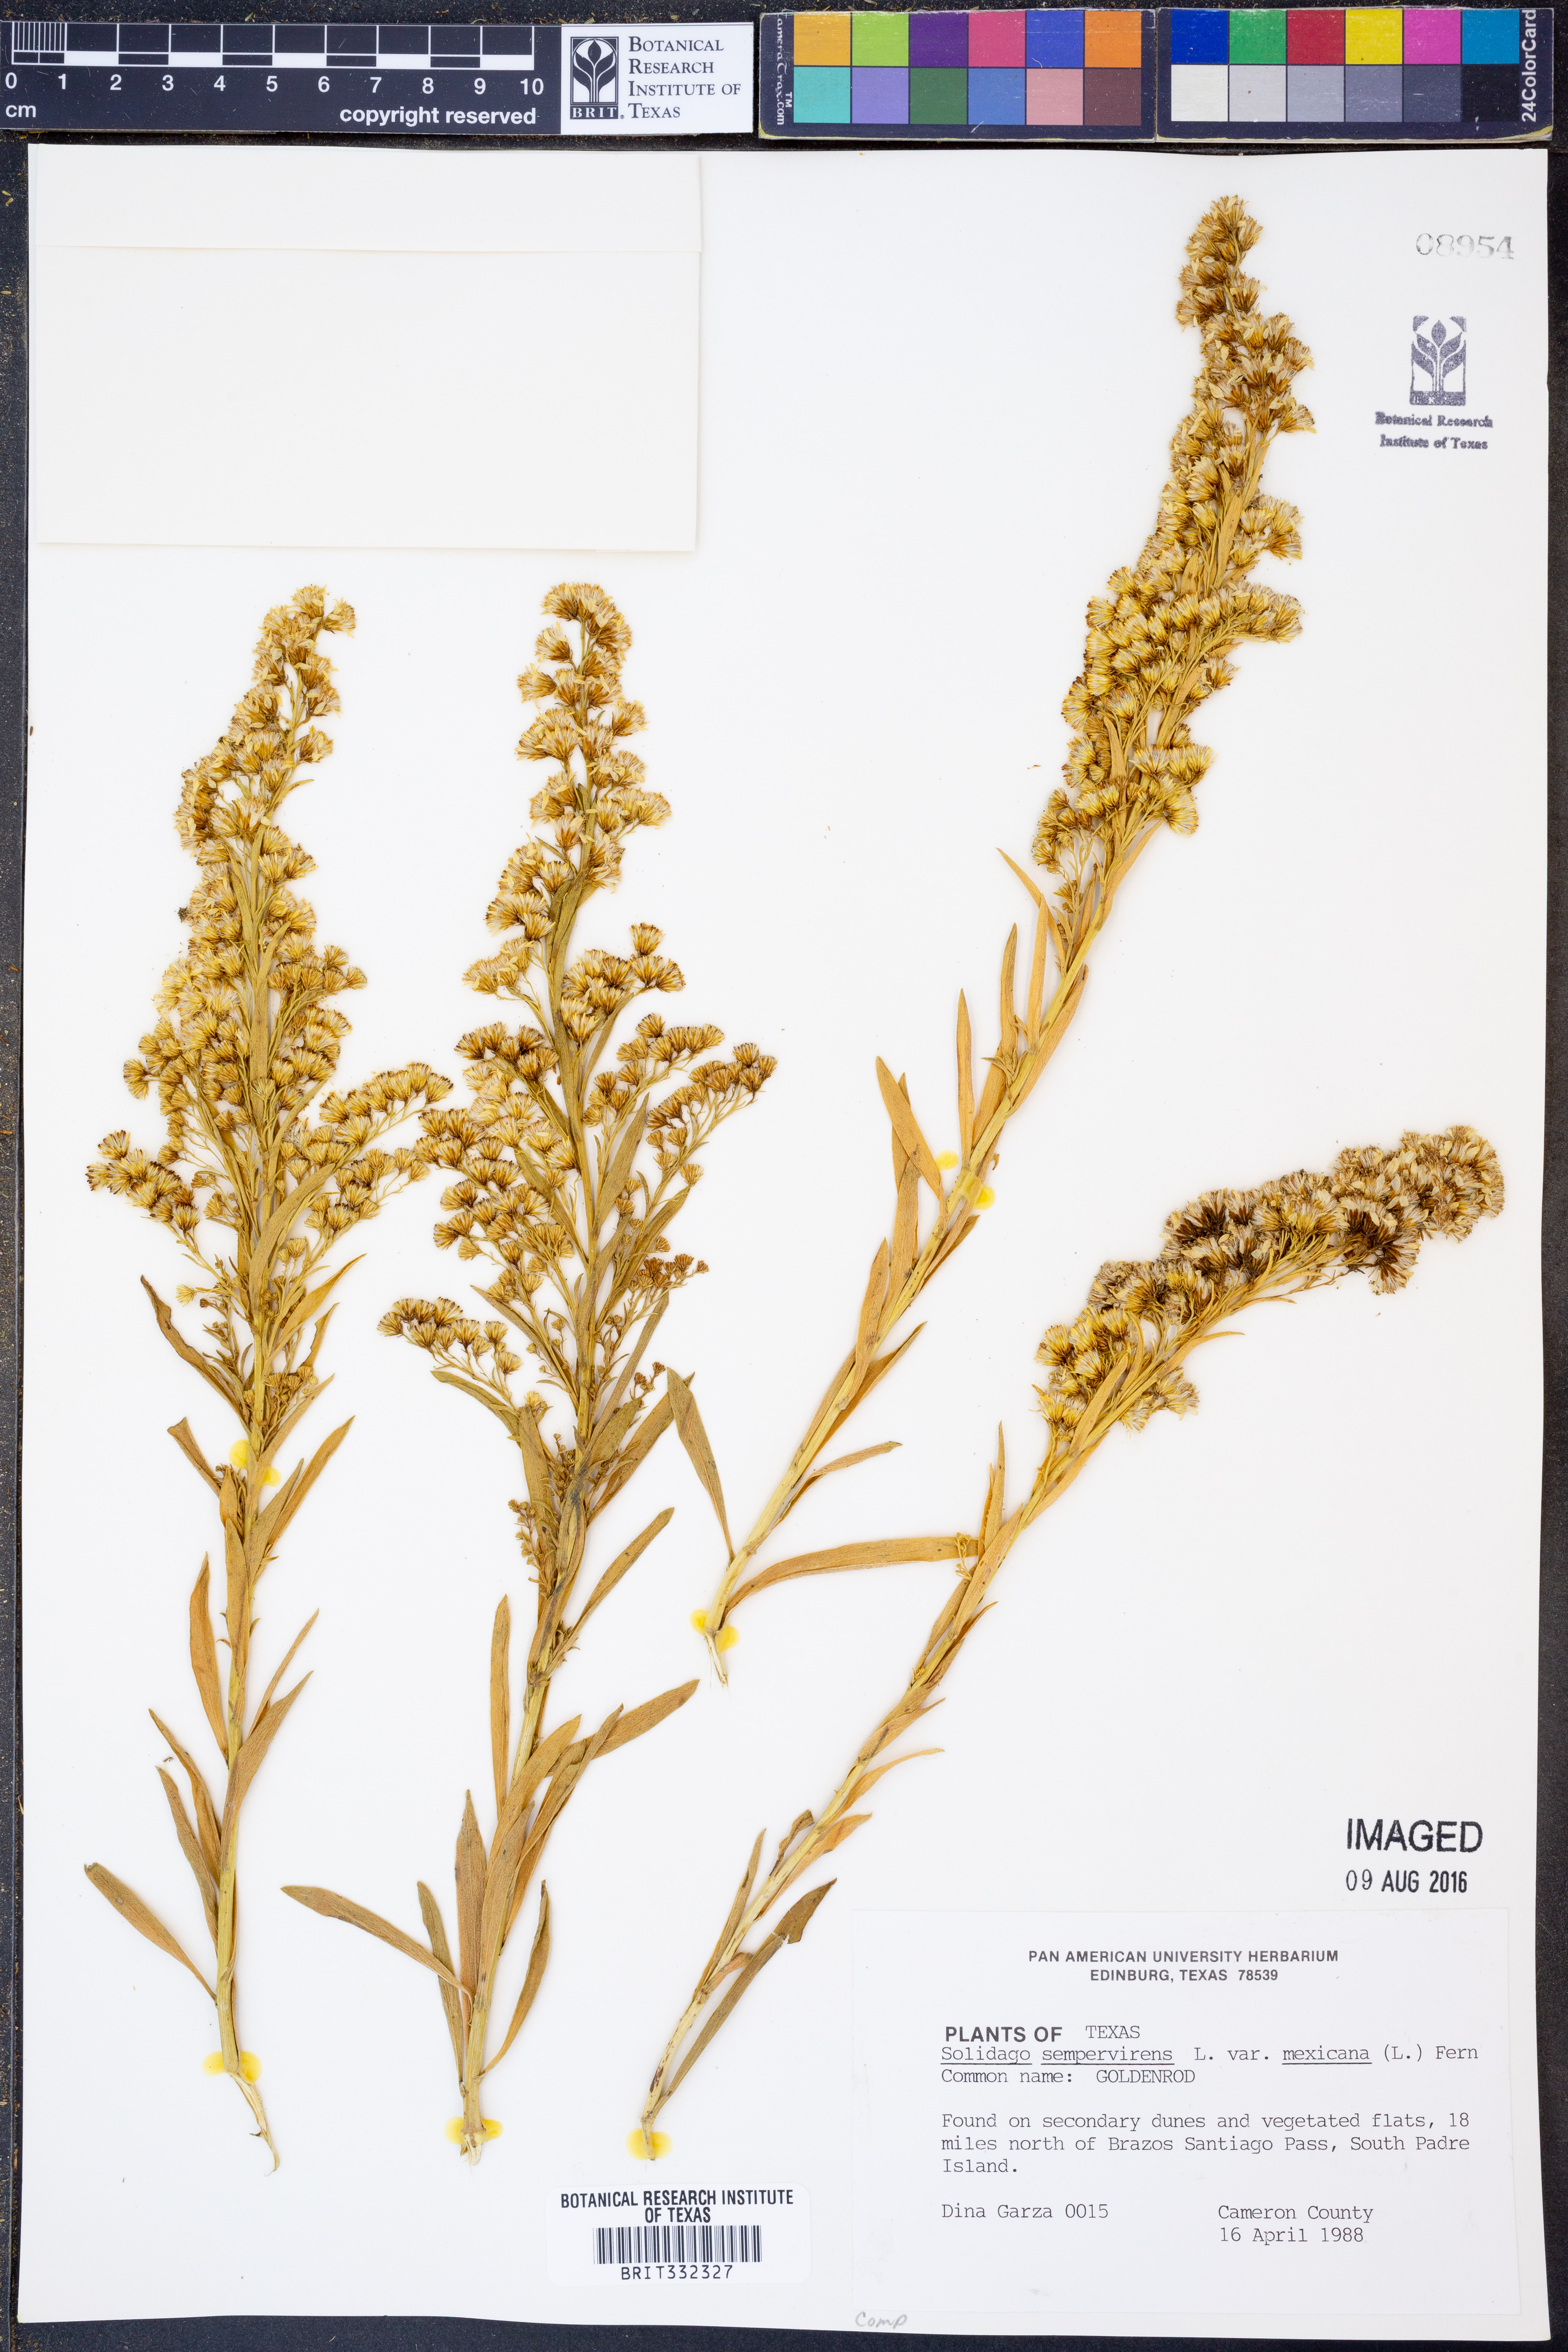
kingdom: Plantae
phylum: Tracheophyta
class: Magnoliopsida
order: Asterales
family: Asteraceae
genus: Solidago
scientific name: Solidago mexicana
